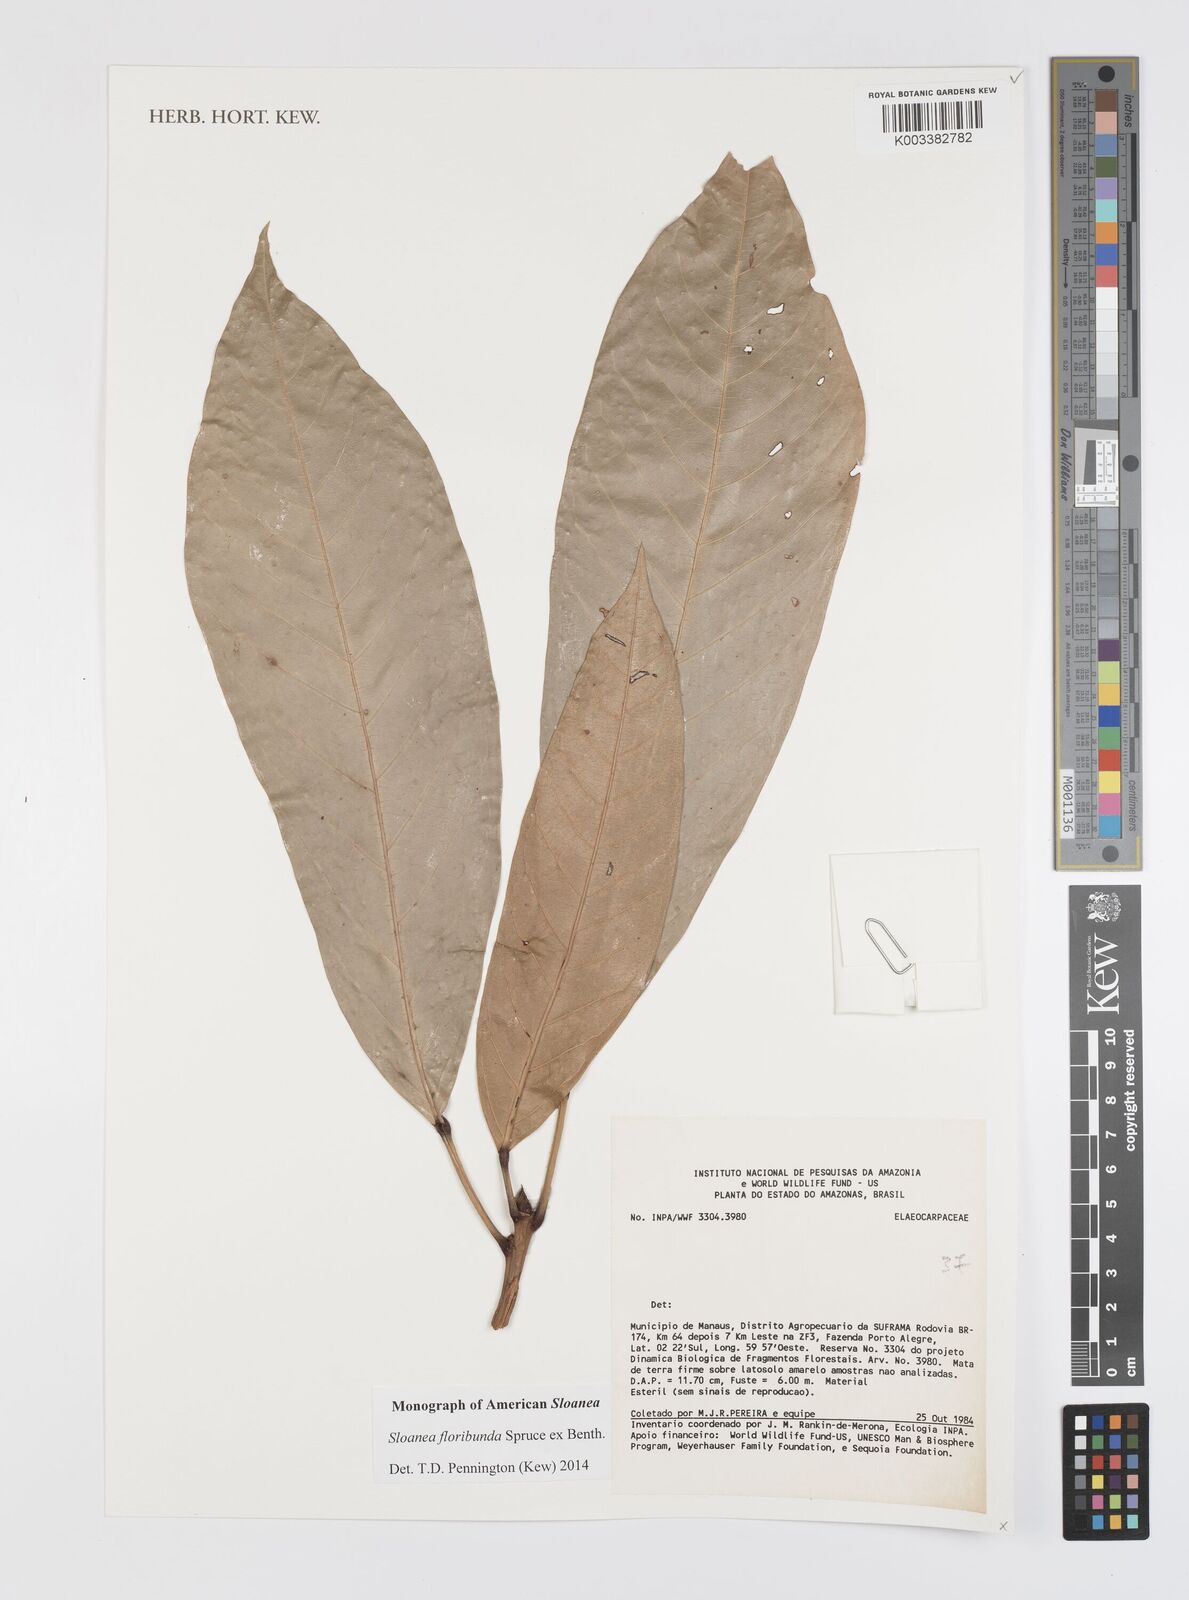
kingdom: Plantae
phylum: Tracheophyta
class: Magnoliopsida
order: Oxalidales
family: Elaeocarpaceae
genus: Sloanea
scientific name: Sloanea floribunda
